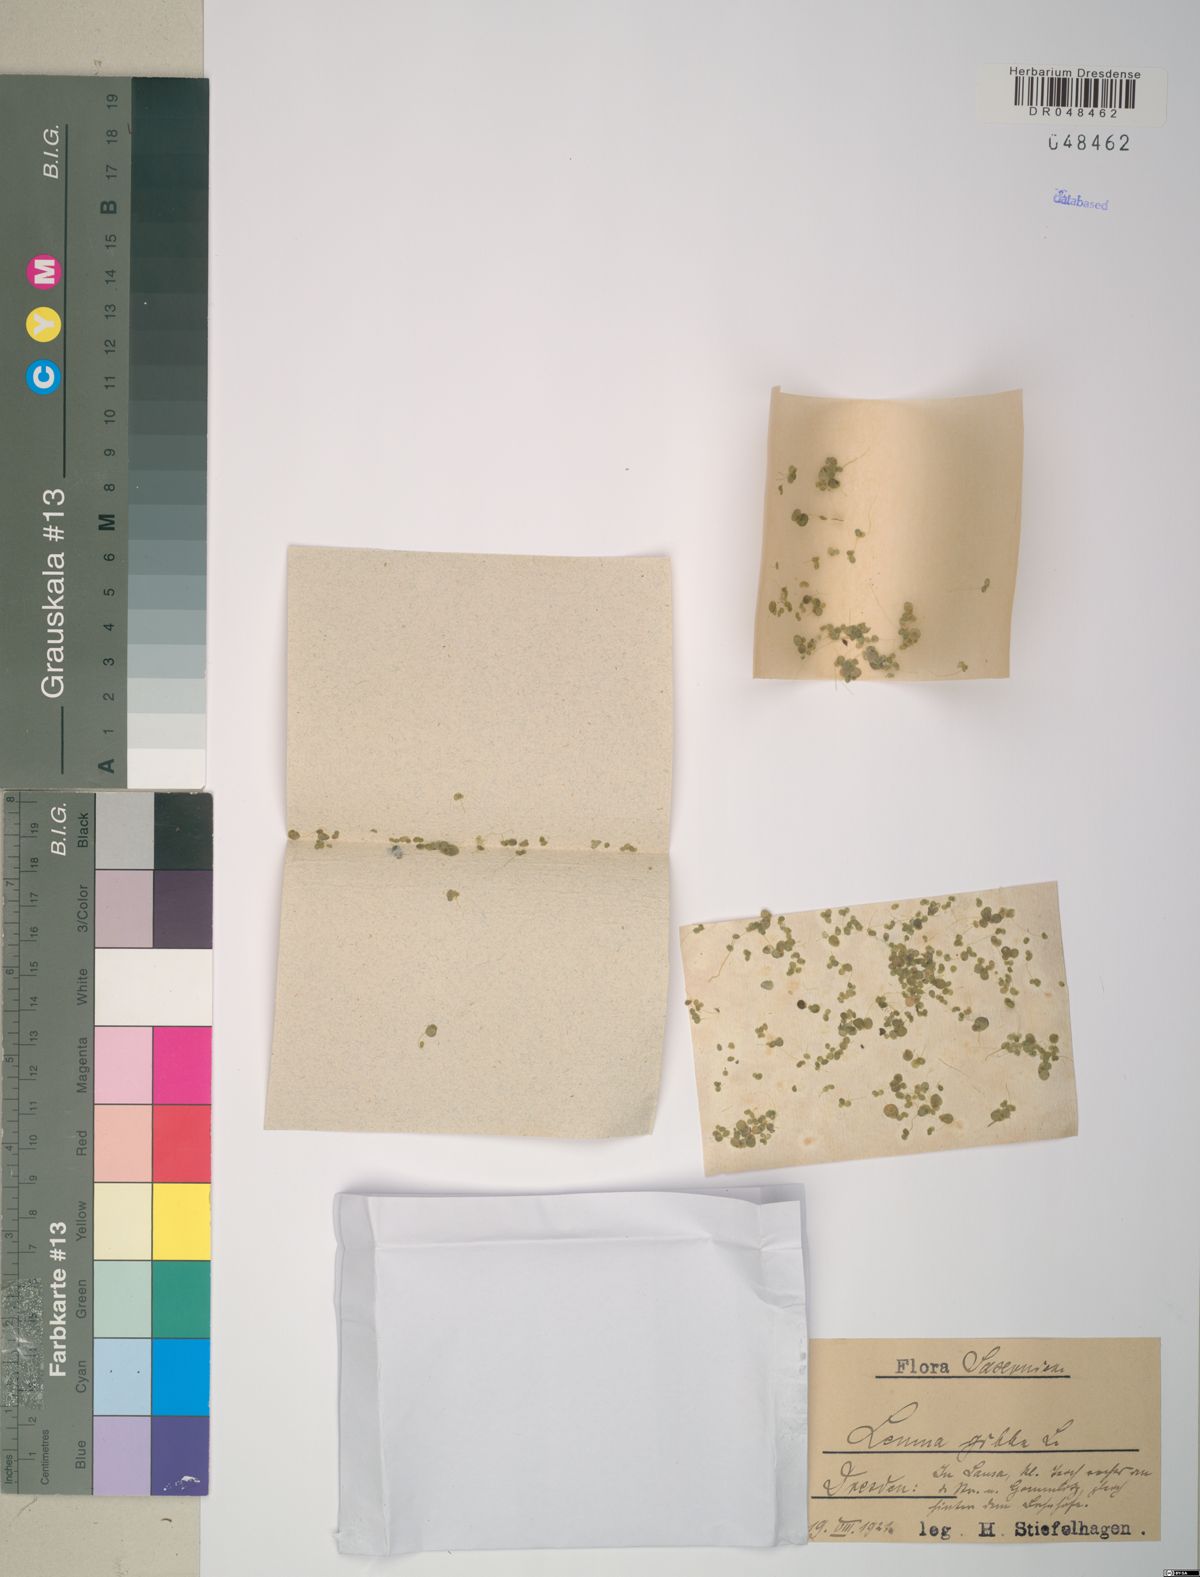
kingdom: Plantae
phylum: Tracheophyta
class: Liliopsida
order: Alismatales
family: Araceae
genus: Lemna
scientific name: Lemna gibba
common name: Fat duckweed
